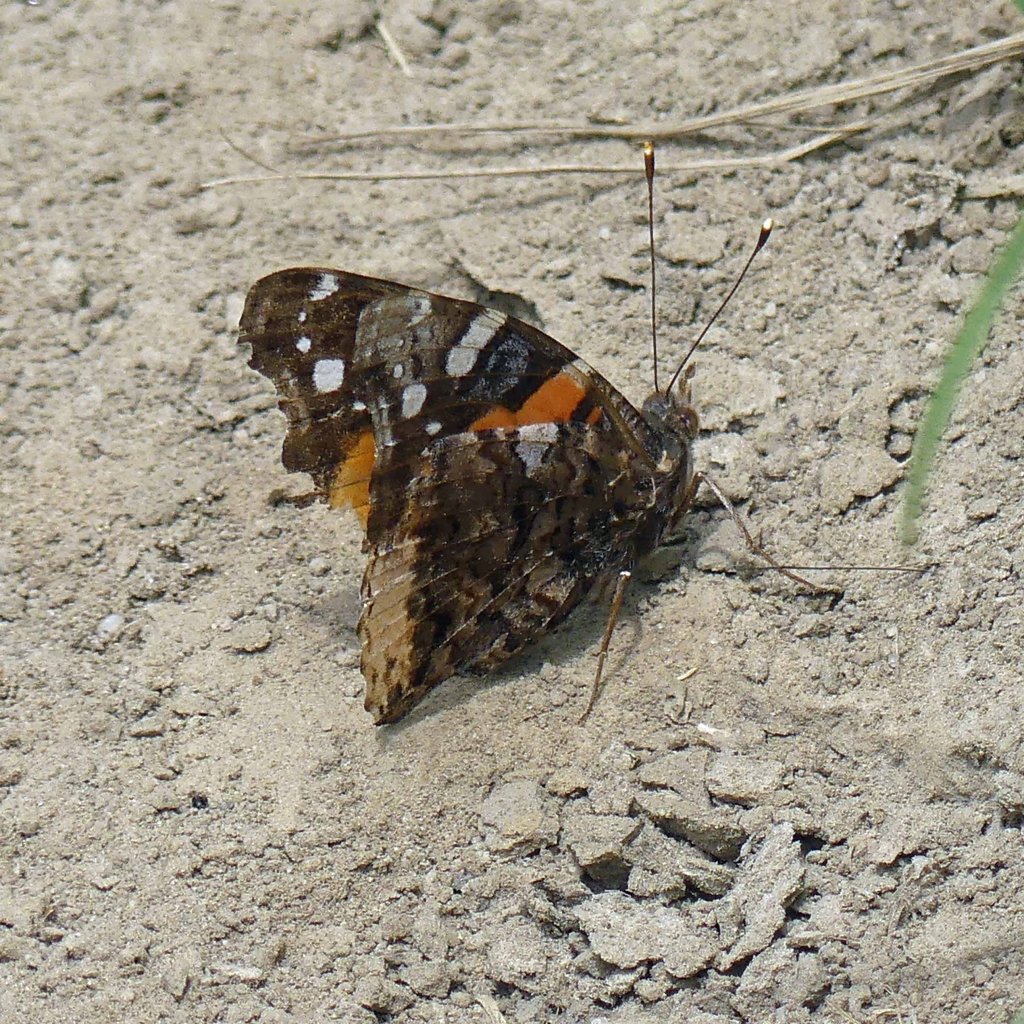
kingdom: Animalia
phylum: Arthropoda
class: Insecta
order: Lepidoptera
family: Nymphalidae
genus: Vanessa
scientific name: Vanessa atalanta
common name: Red Admiral
